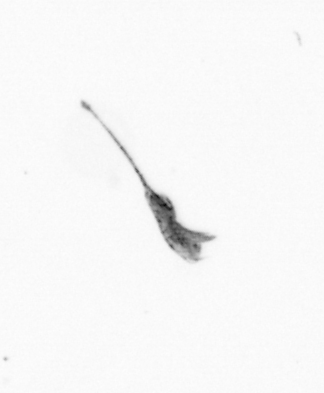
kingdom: Animalia
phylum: Arthropoda
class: Copepoda
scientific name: Copepoda
